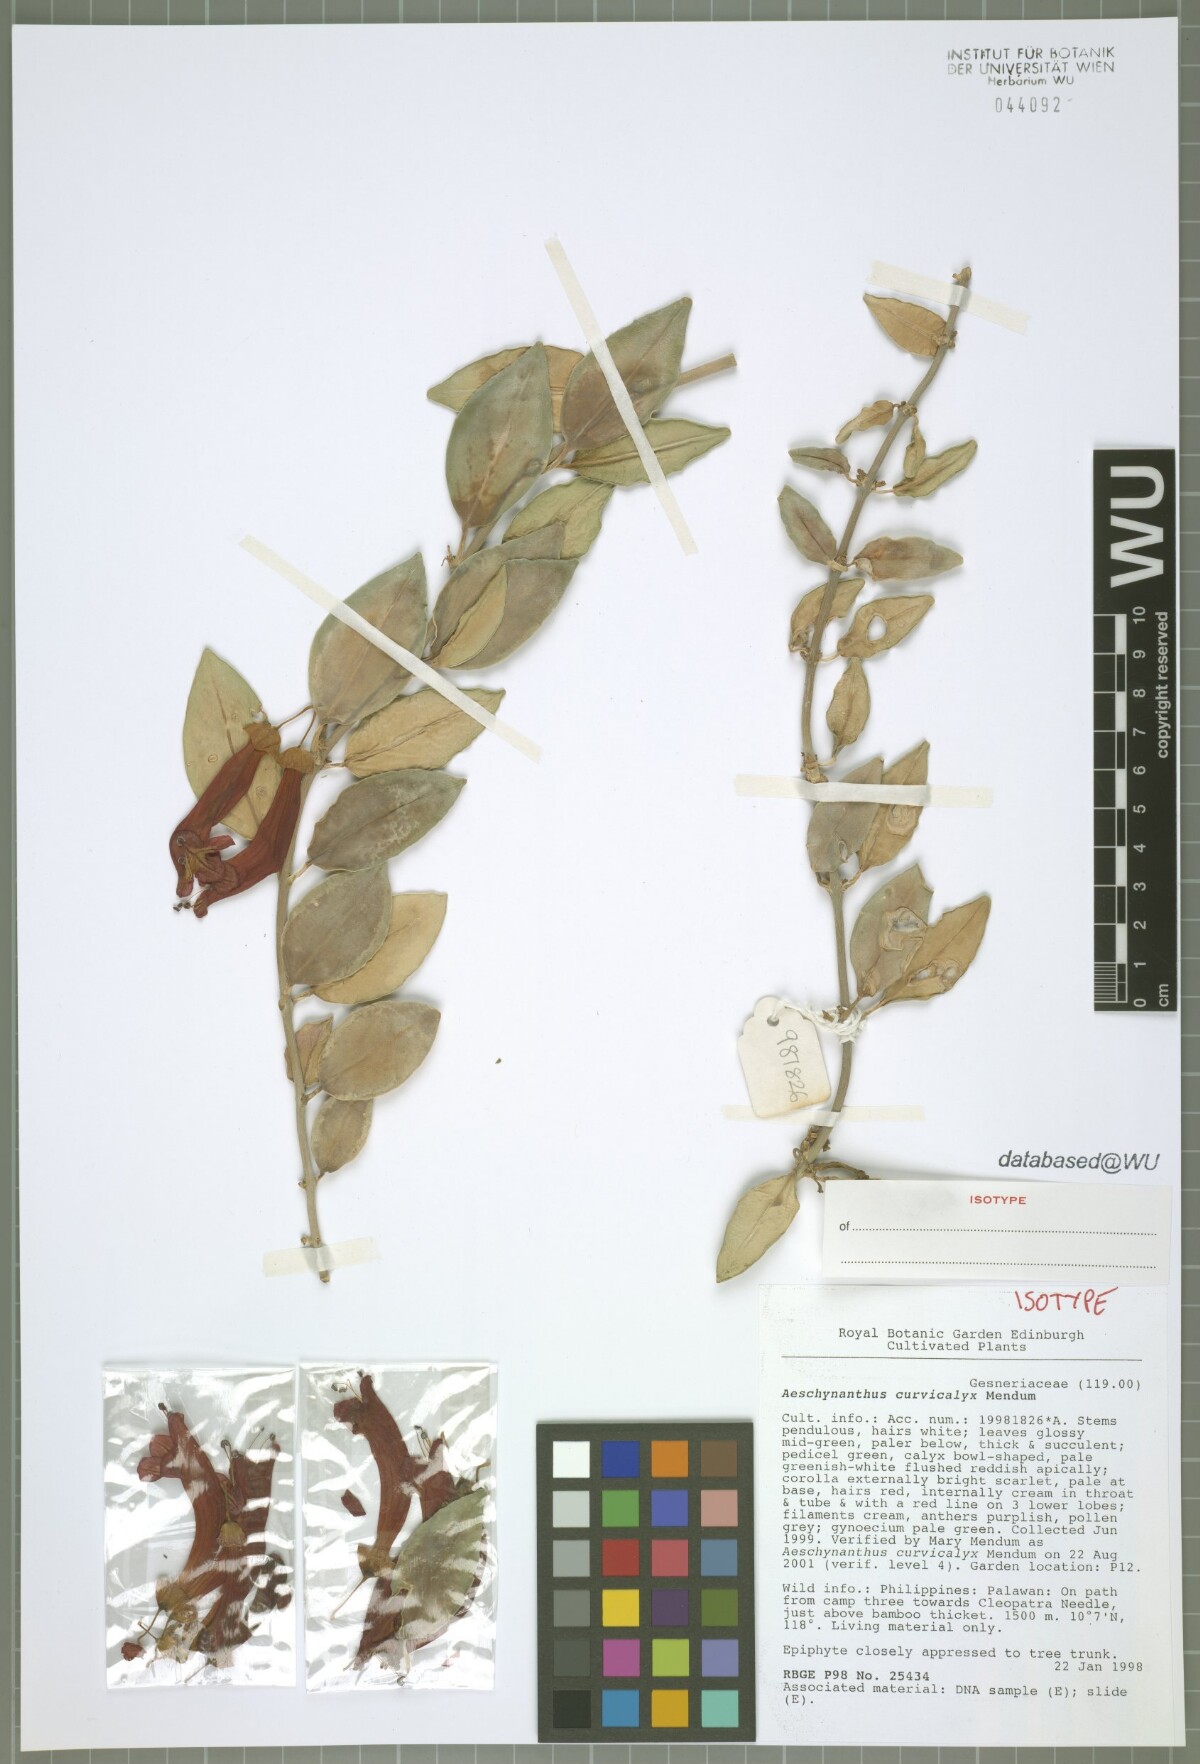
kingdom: Plantae
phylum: Tracheophyta
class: Magnoliopsida
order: Lamiales
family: Gesneriaceae
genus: Aeschynanthus
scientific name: Aeschynanthus curvicalyx
